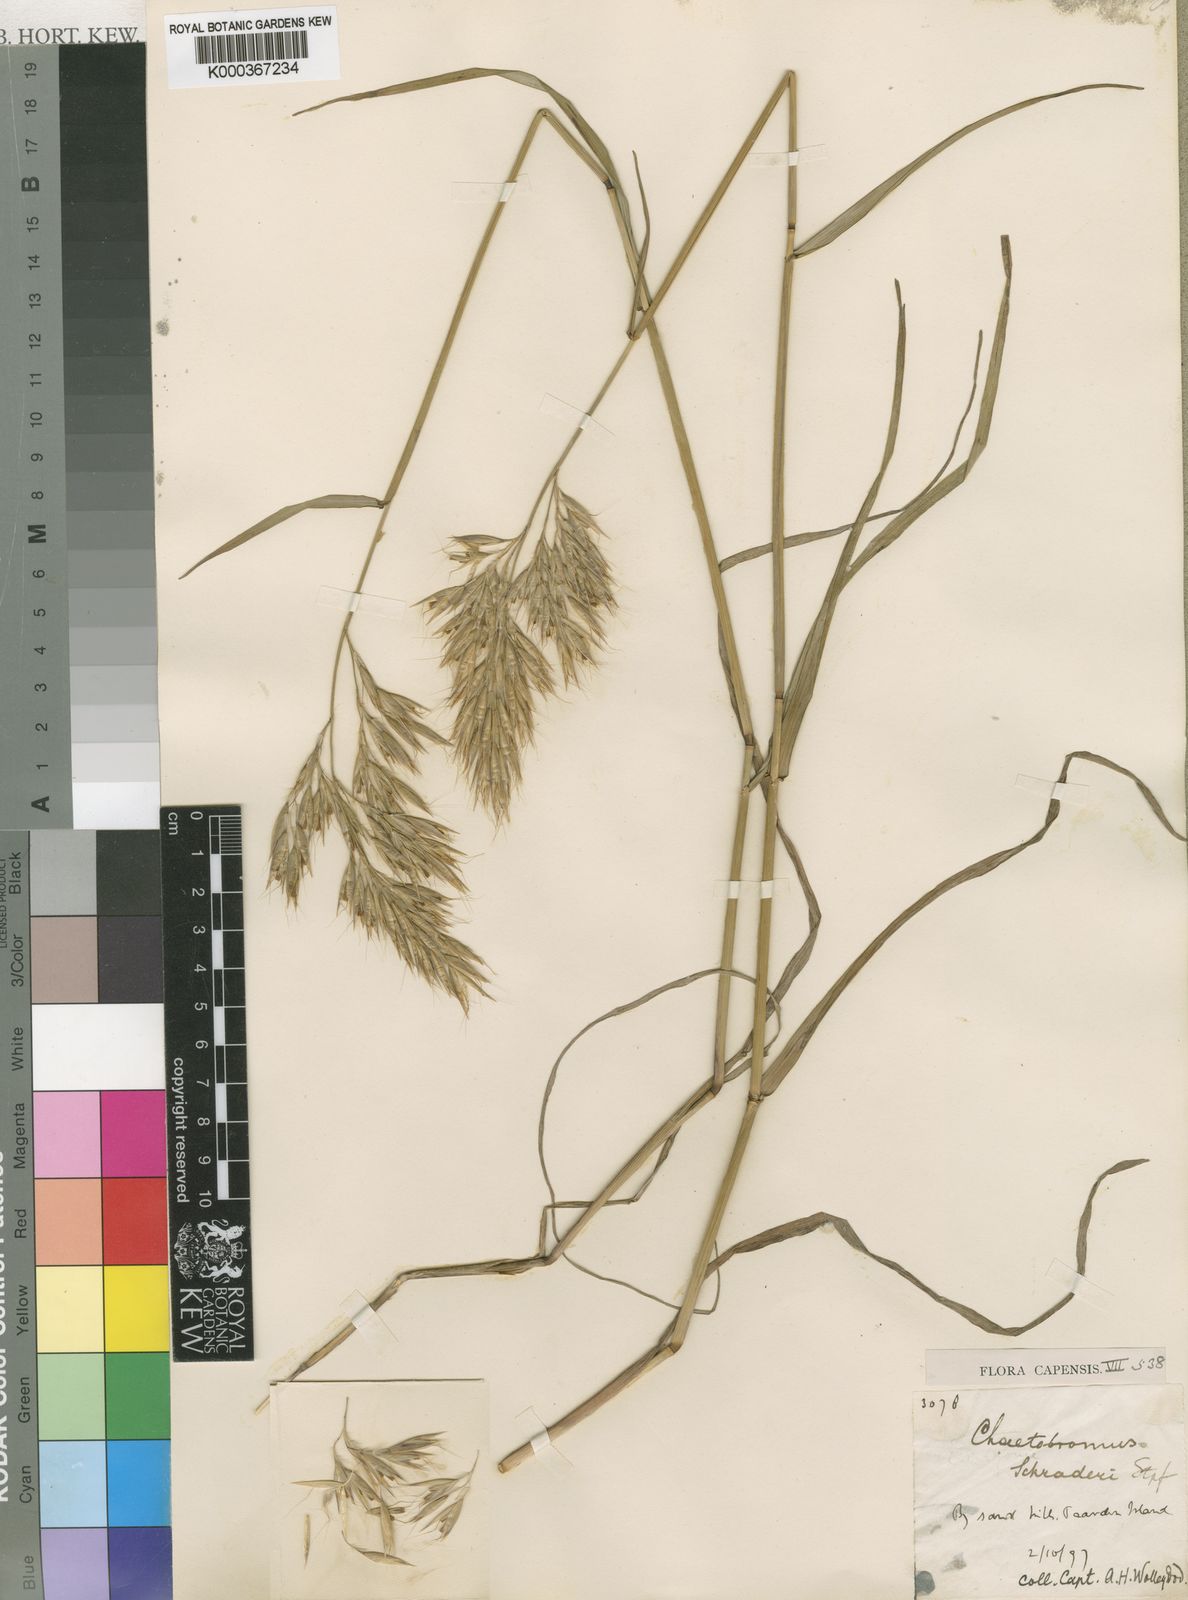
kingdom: Plantae
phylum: Tracheophyta
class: Liliopsida
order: Poales
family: Poaceae
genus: Chaetobromus
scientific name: Chaetobromus involucratus
